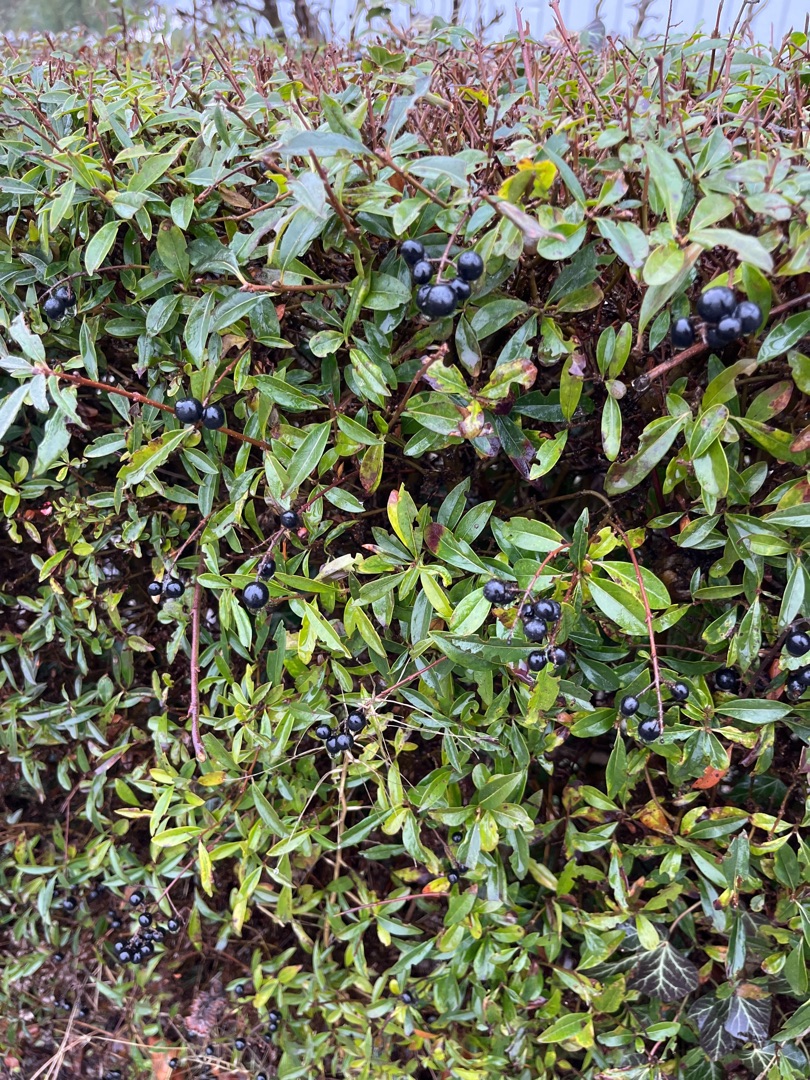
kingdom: Plantae
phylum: Tracheophyta
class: Magnoliopsida
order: Lamiales
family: Oleaceae
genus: Ligustrum
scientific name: Ligustrum vulgare
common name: Liguster
